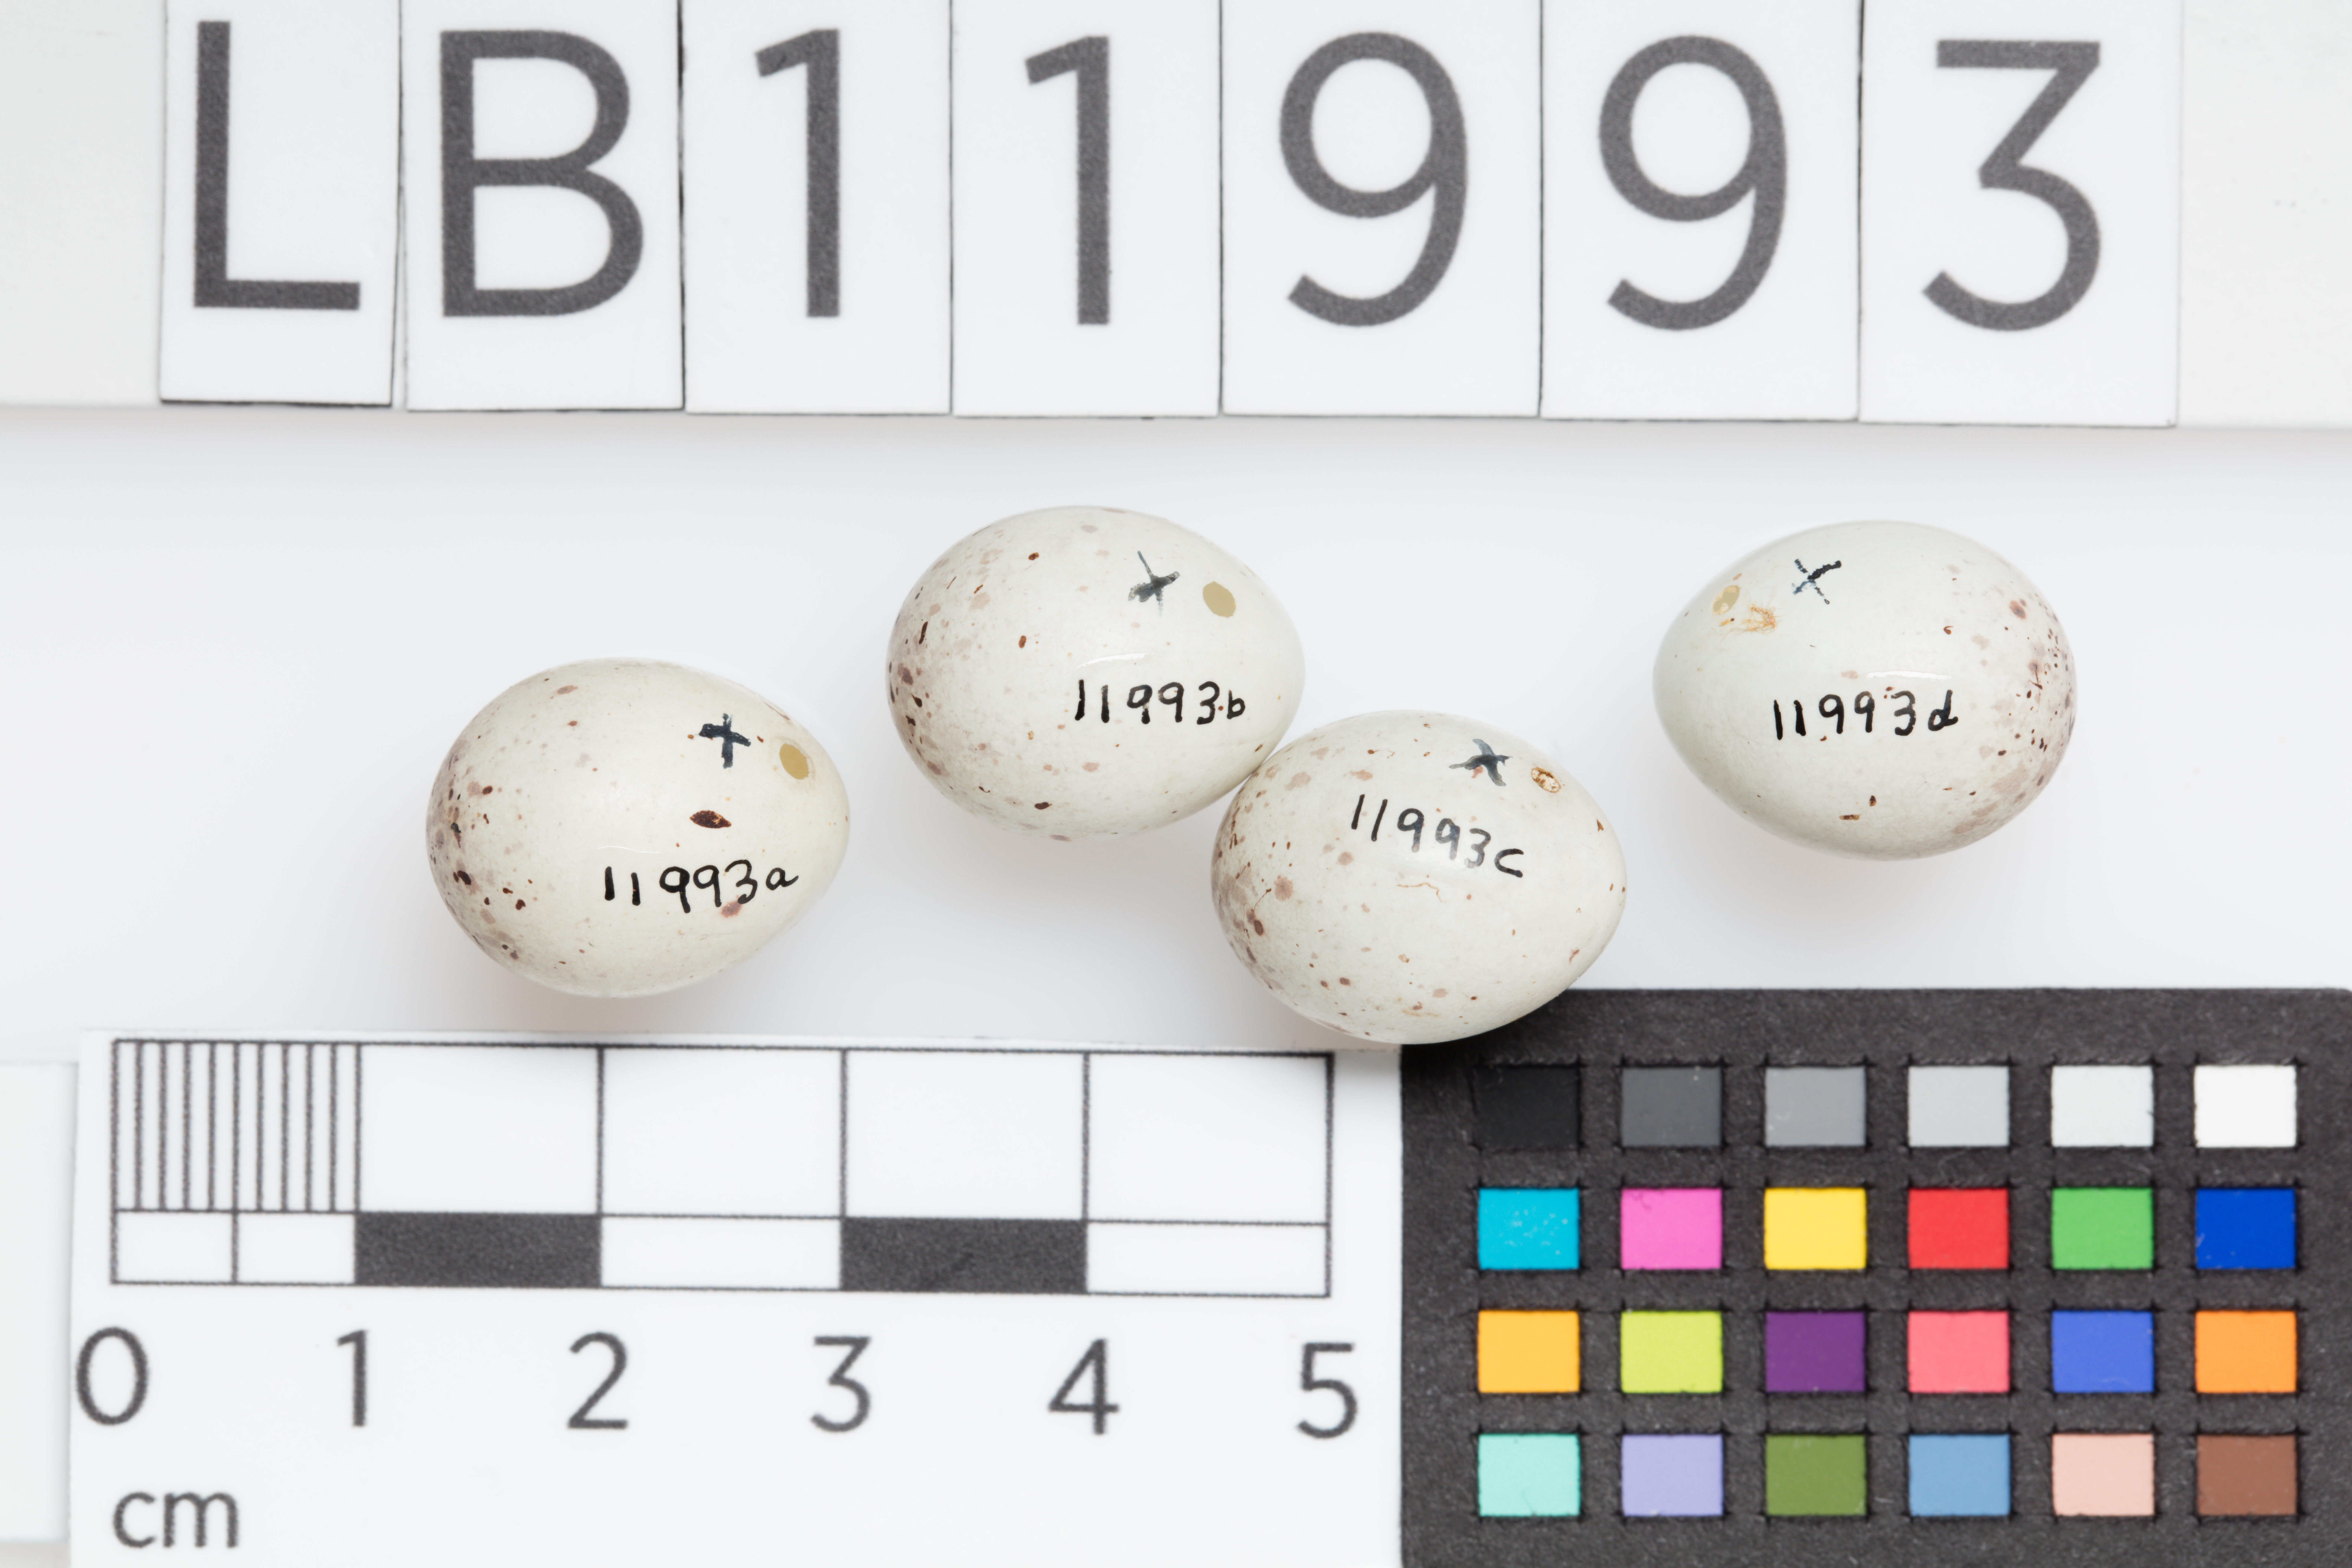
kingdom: Animalia
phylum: Chordata
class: Aves
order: Passeriformes
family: Fringillidae
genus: Carduelis
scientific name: Carduelis carduelis
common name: European goldfinch
